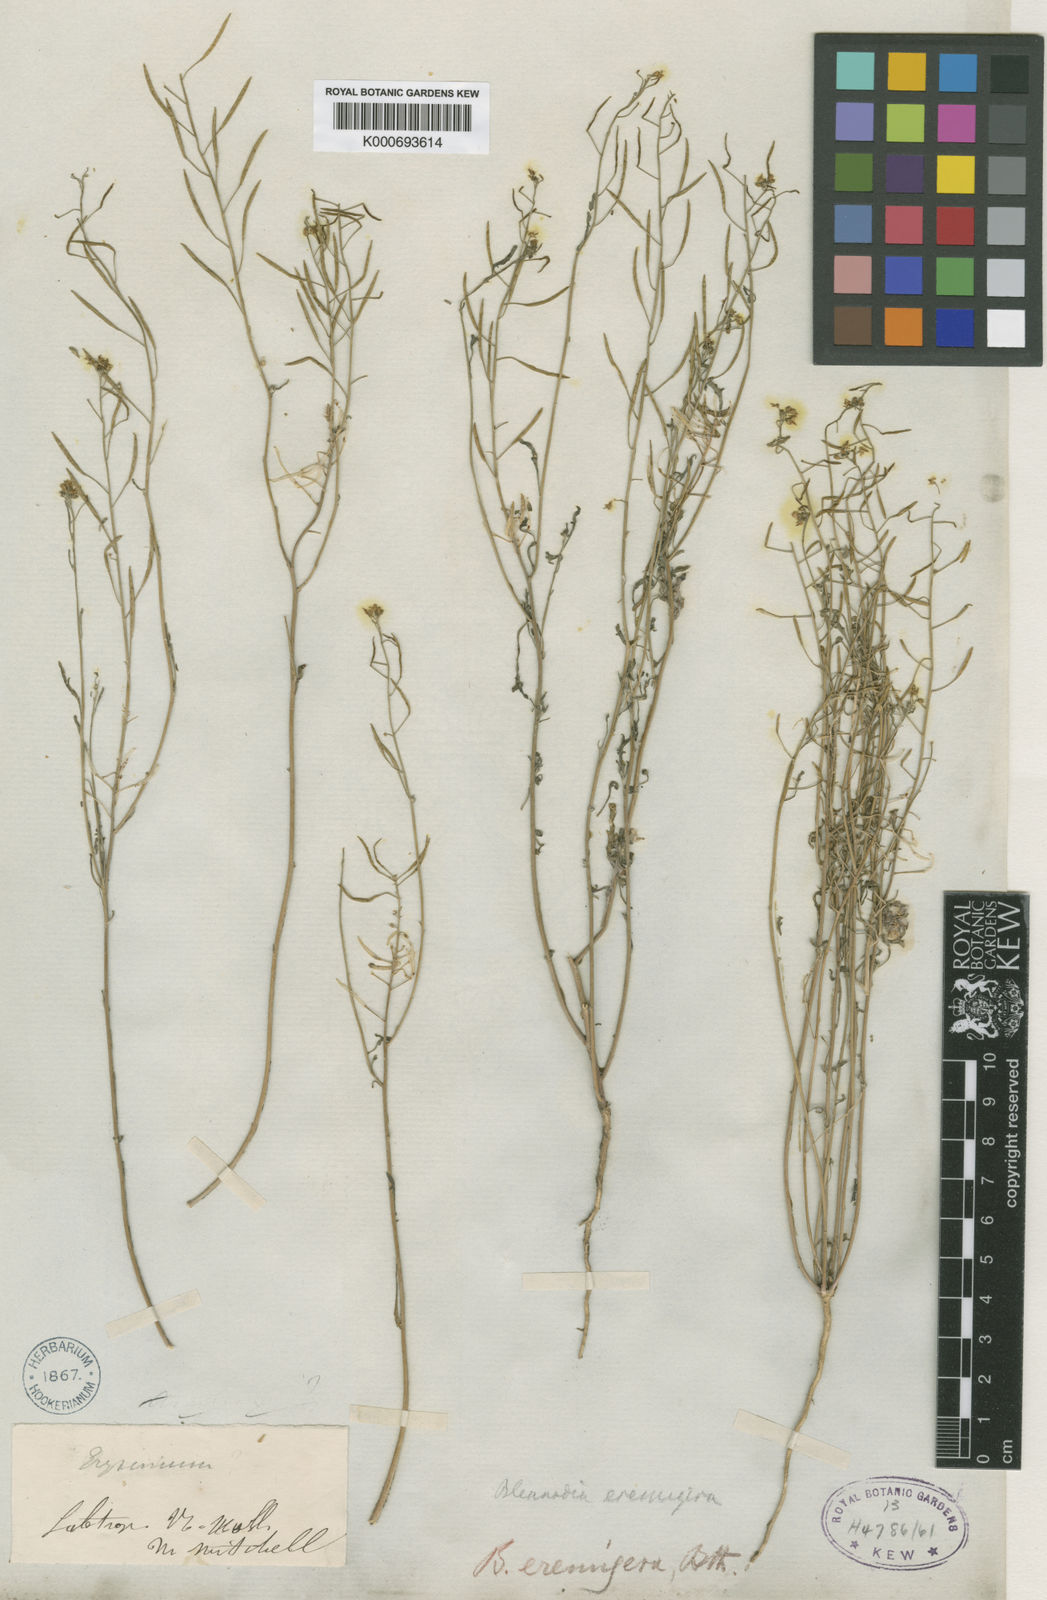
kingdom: Plantae
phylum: Tracheophyta
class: Magnoliopsida
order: Brassicales
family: Brassicaceae
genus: Arabidella
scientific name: Arabidella eremigena
